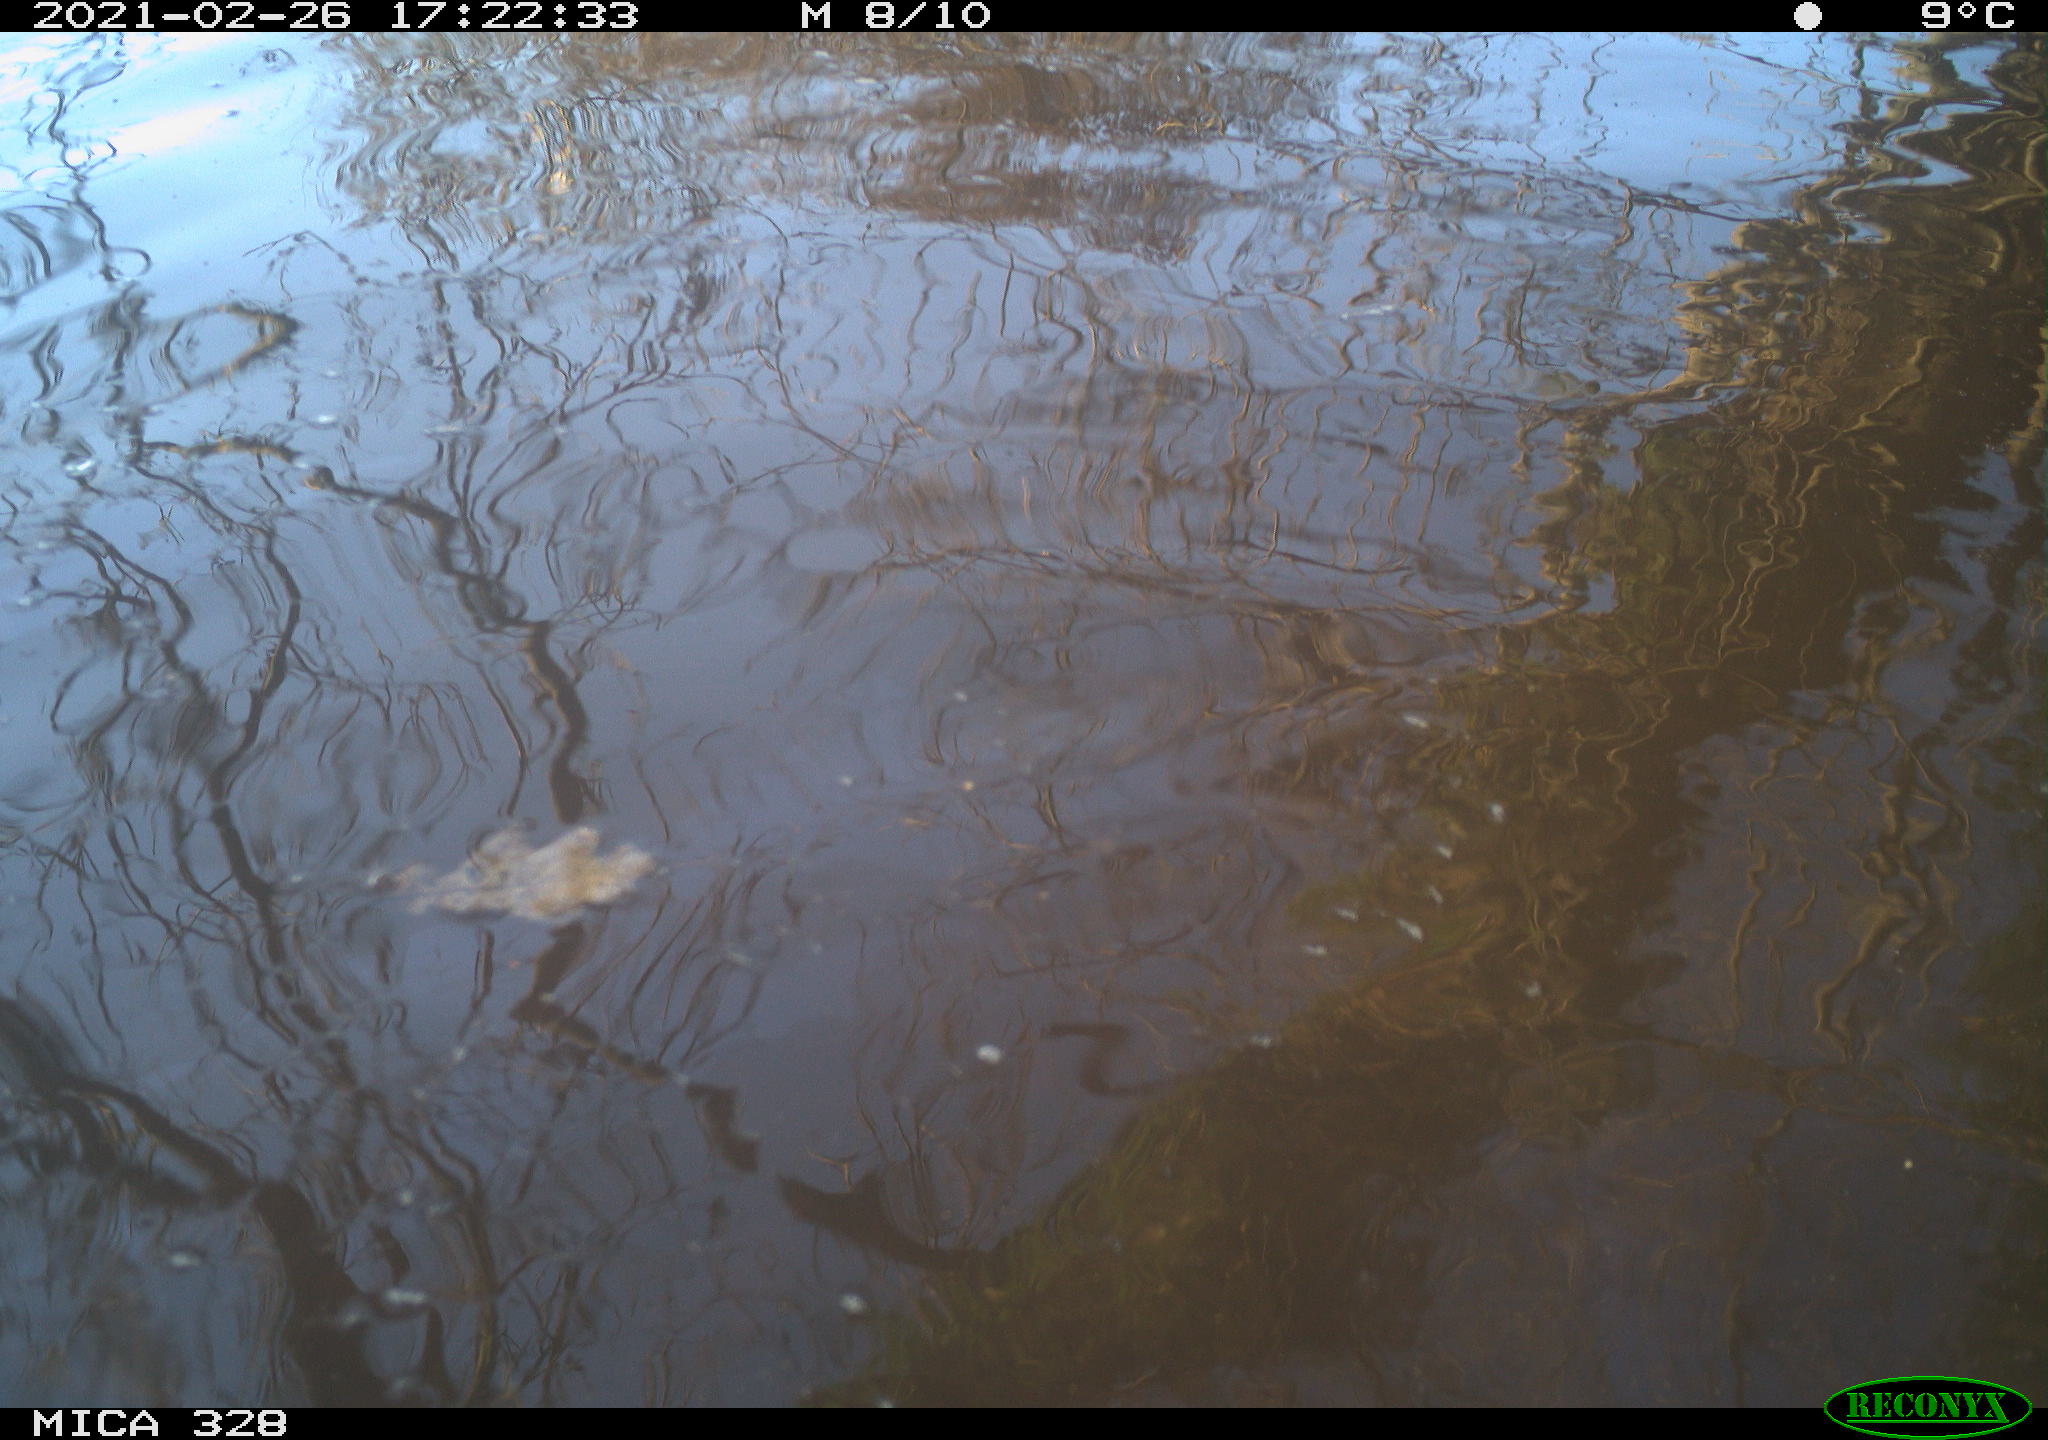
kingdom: Animalia
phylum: Chordata
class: Mammalia
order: Rodentia
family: Cricetidae
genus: Ondatra
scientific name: Ondatra zibethicus
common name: Muskrat
